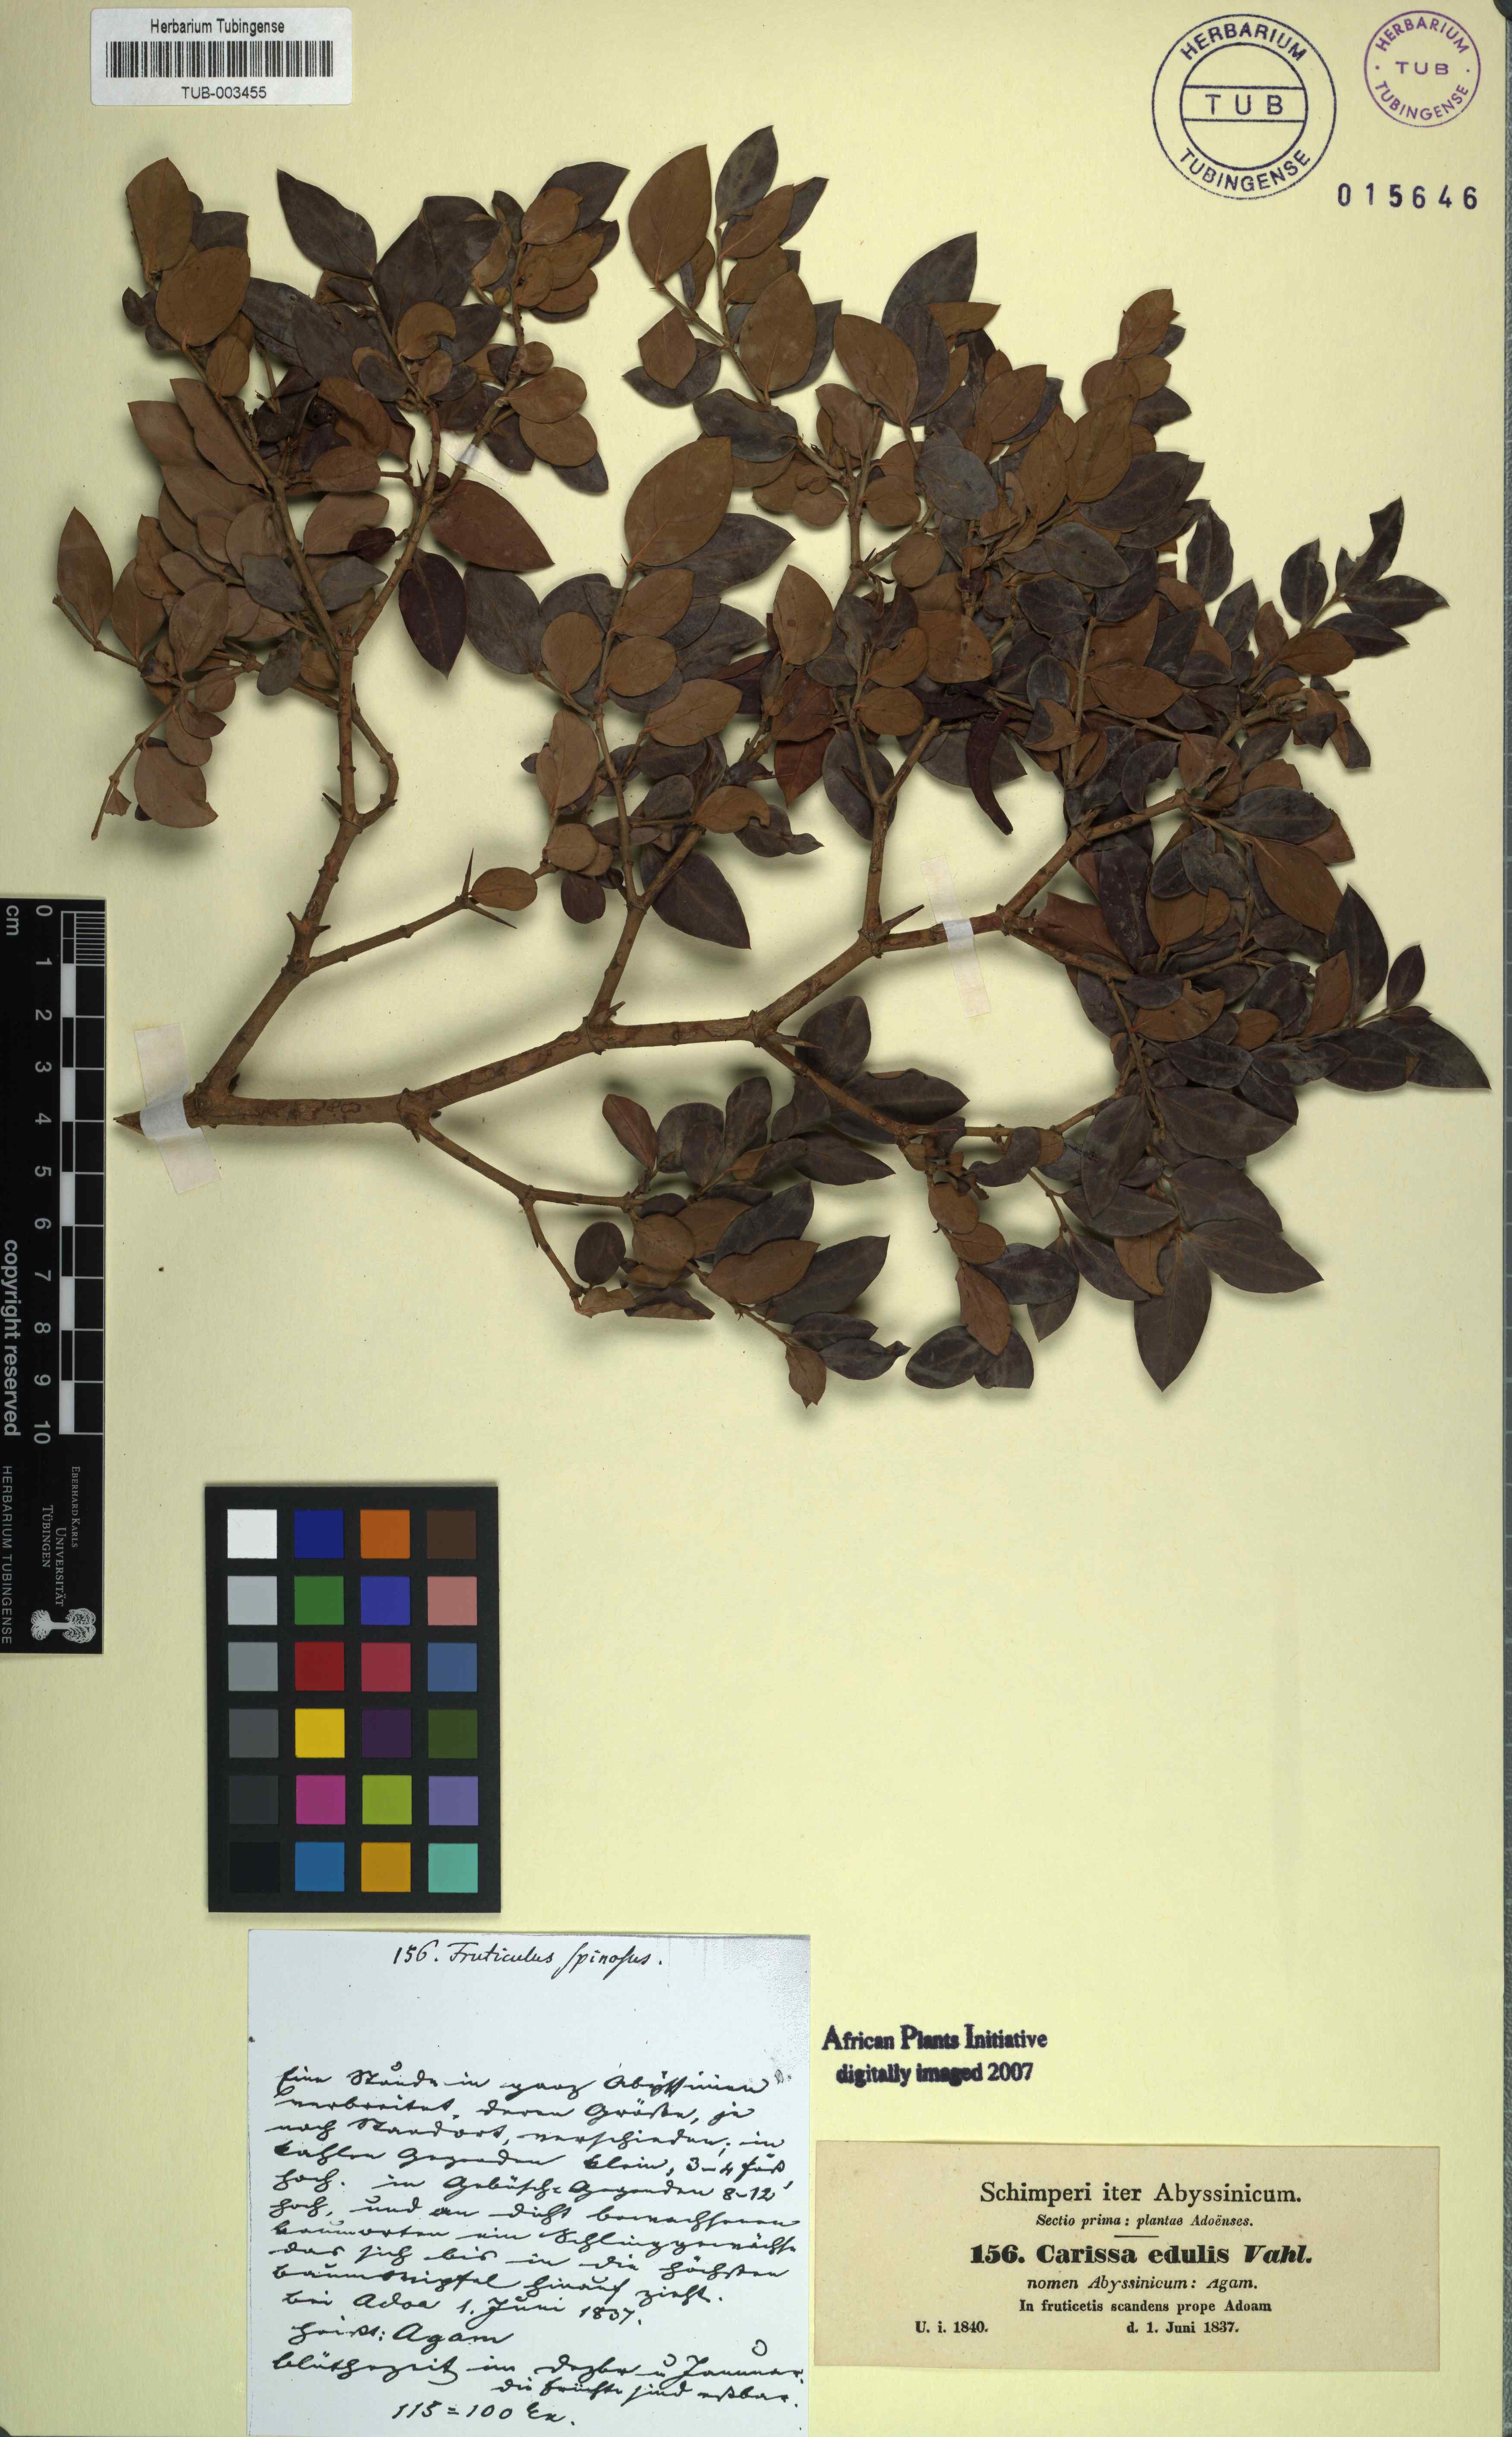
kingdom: Plantae
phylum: Tracheophyta
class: Magnoliopsida
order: Gentianales
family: Apocynaceae
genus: Carissa
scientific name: Carissa spinarum
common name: Egyptian carissa
